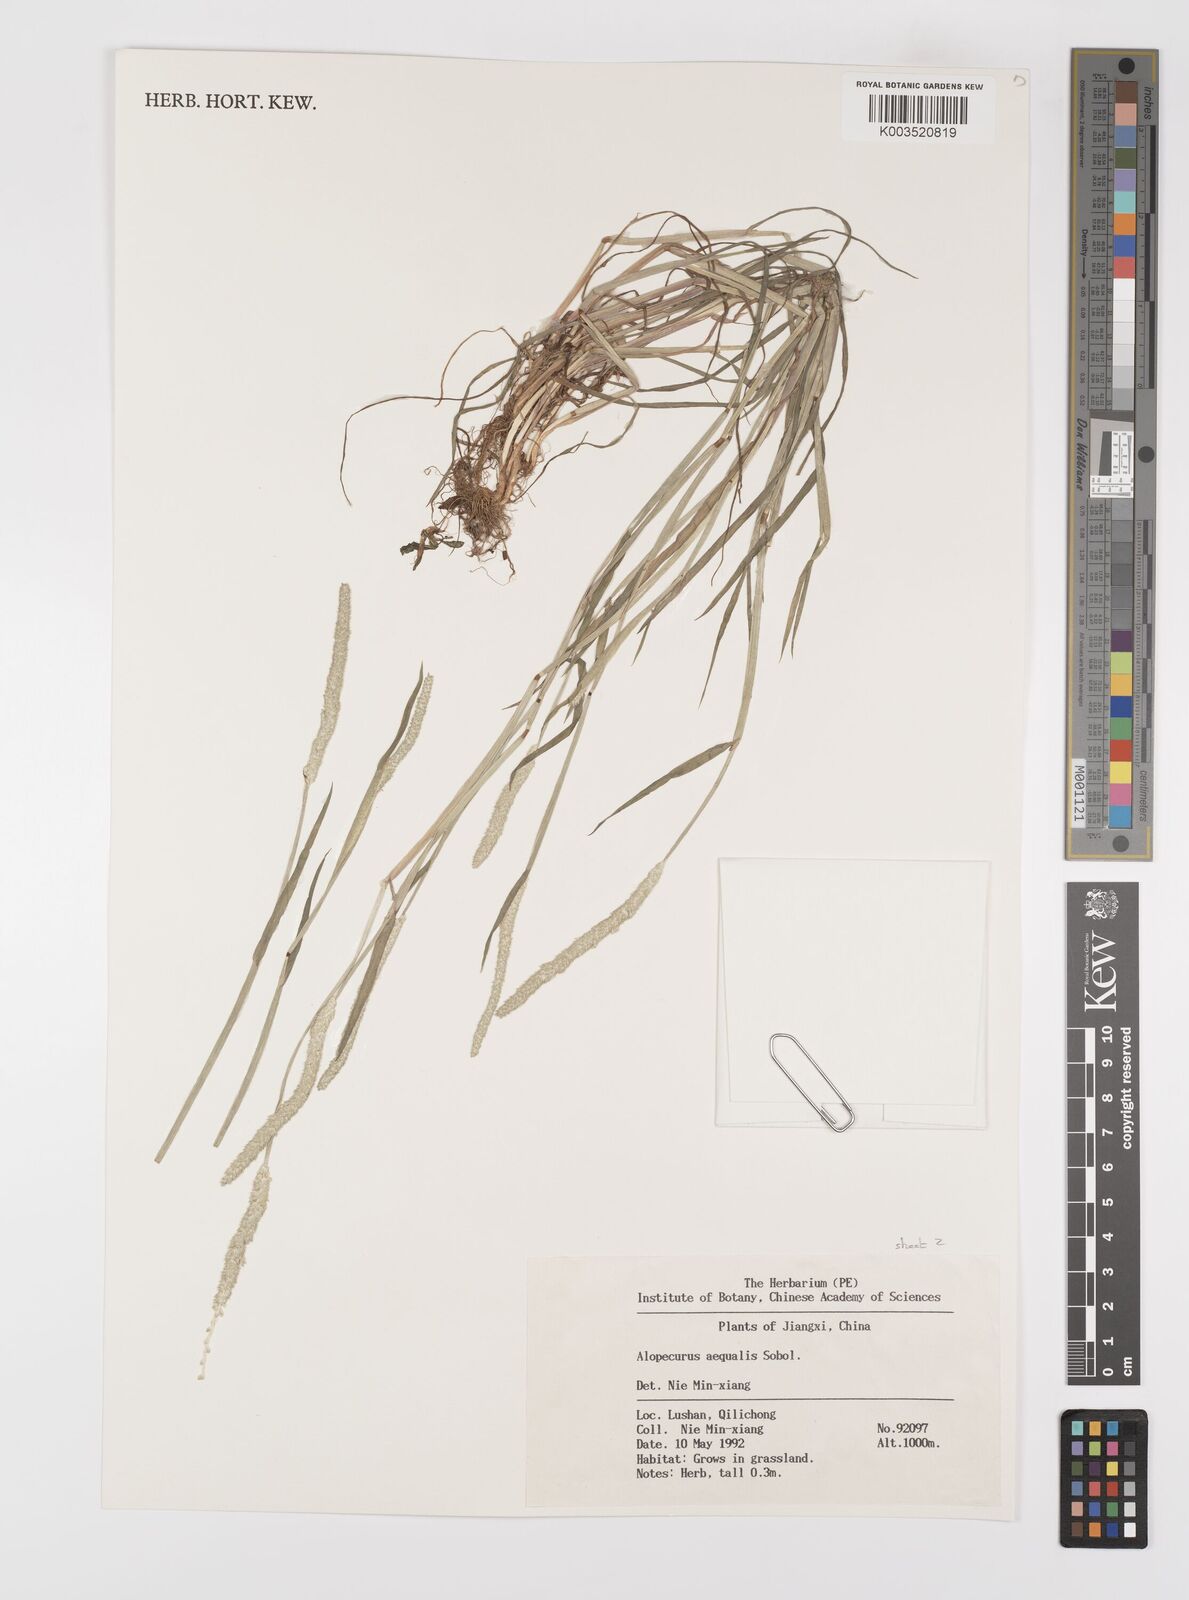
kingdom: Plantae
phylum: Tracheophyta
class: Liliopsida
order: Poales
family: Poaceae
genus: Alopecurus
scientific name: Alopecurus aequalis
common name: Orange foxtail
